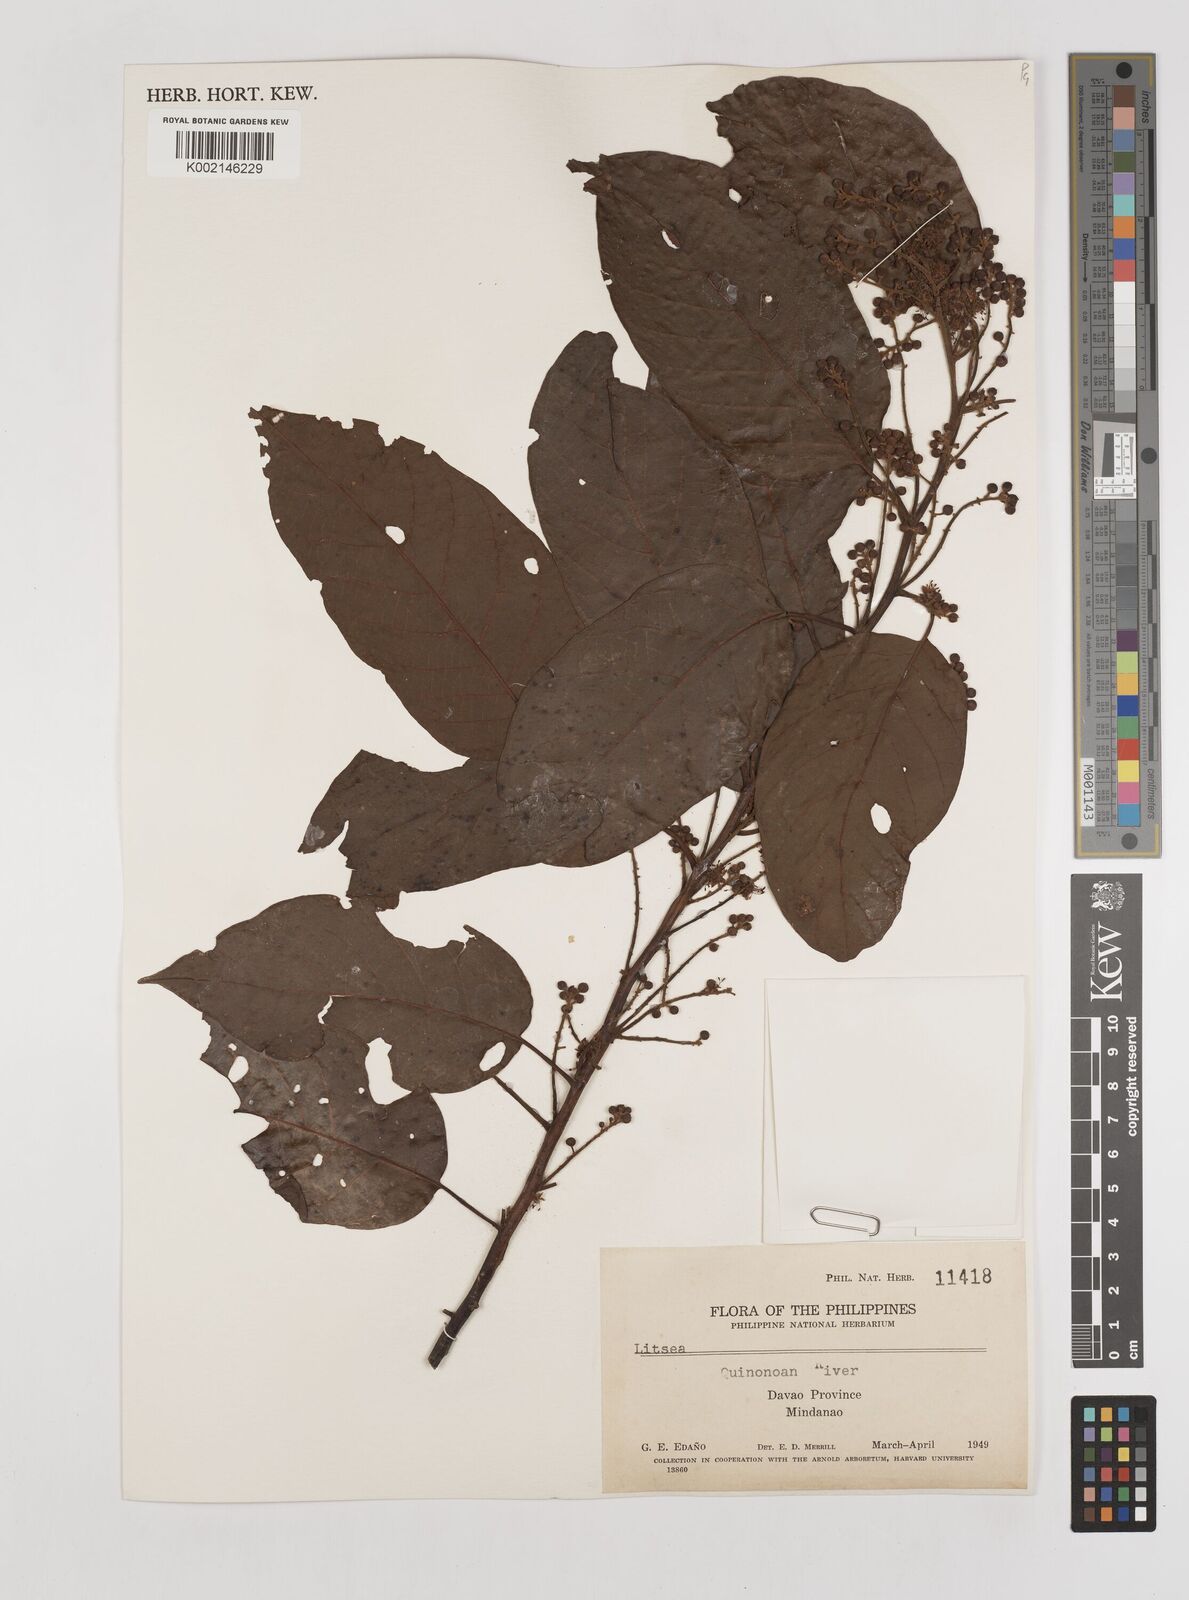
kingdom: Plantae
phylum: Tracheophyta
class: Magnoliopsida
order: Laurales
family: Lauraceae
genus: Litsea
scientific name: Litsea
